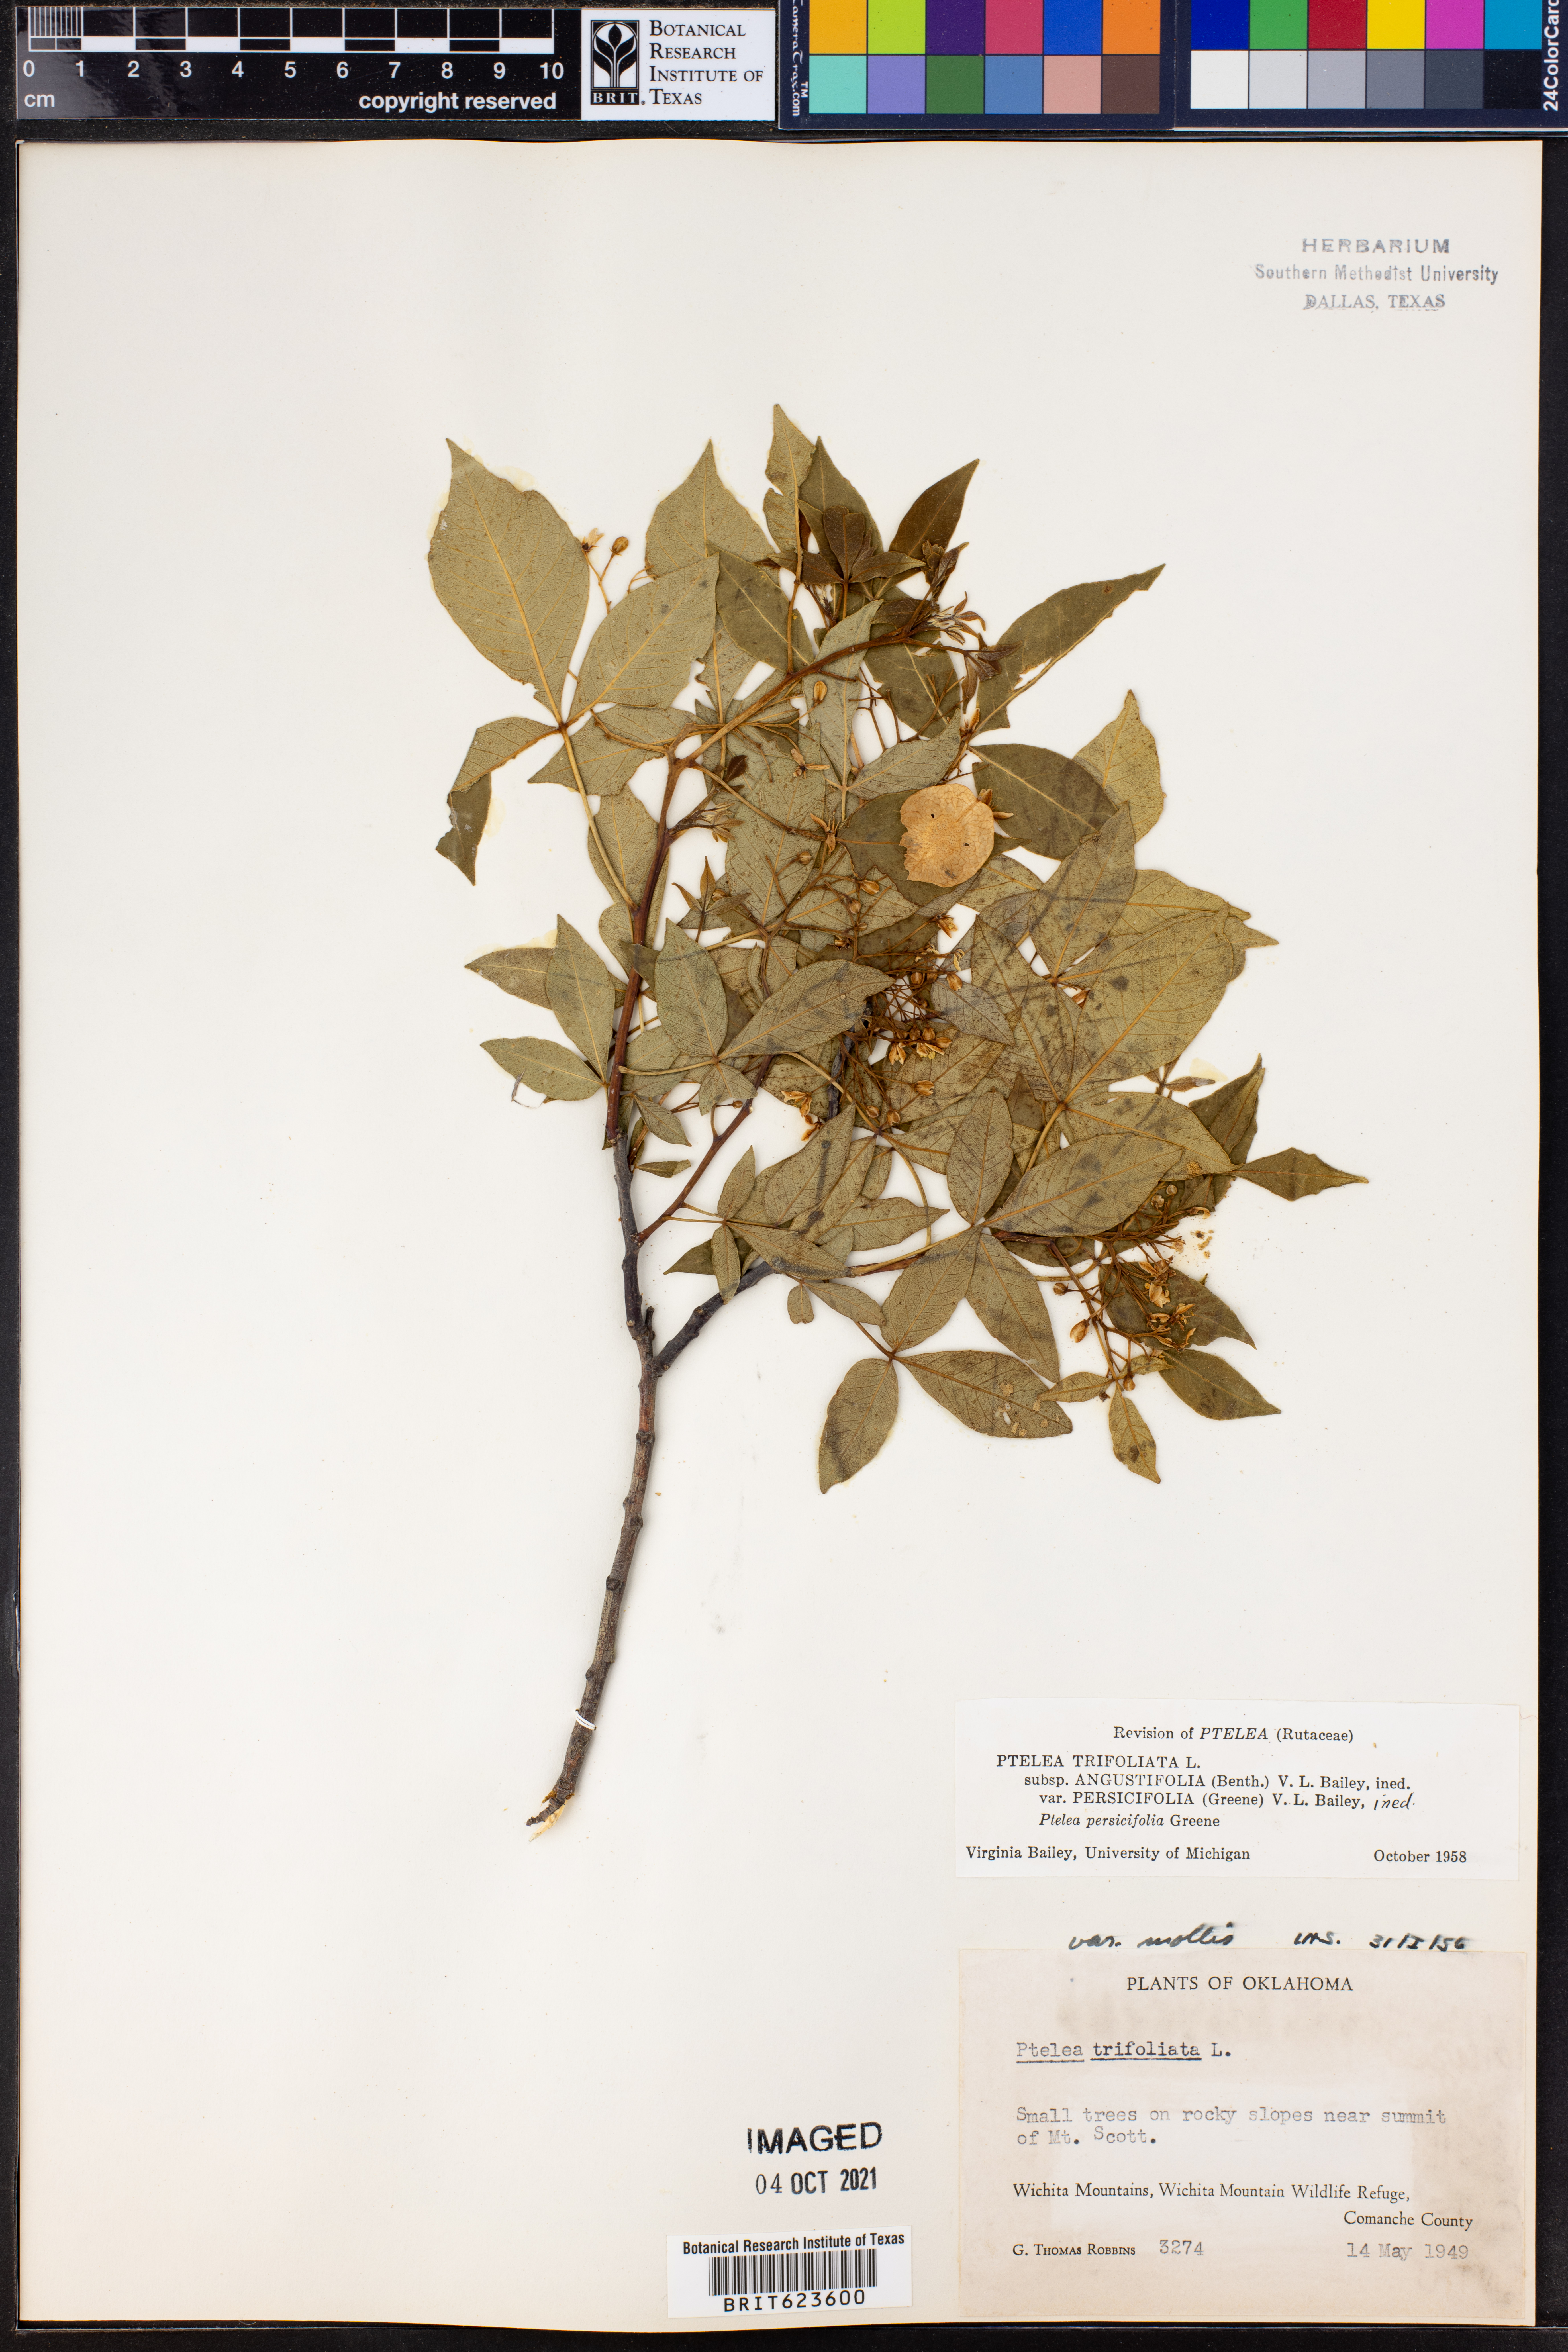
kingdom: Plantae
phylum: Tracheophyta
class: Magnoliopsida
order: Sapindales
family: Rutaceae
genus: Ptelea
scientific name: Ptelea trifoliata
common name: Common hop-tree
